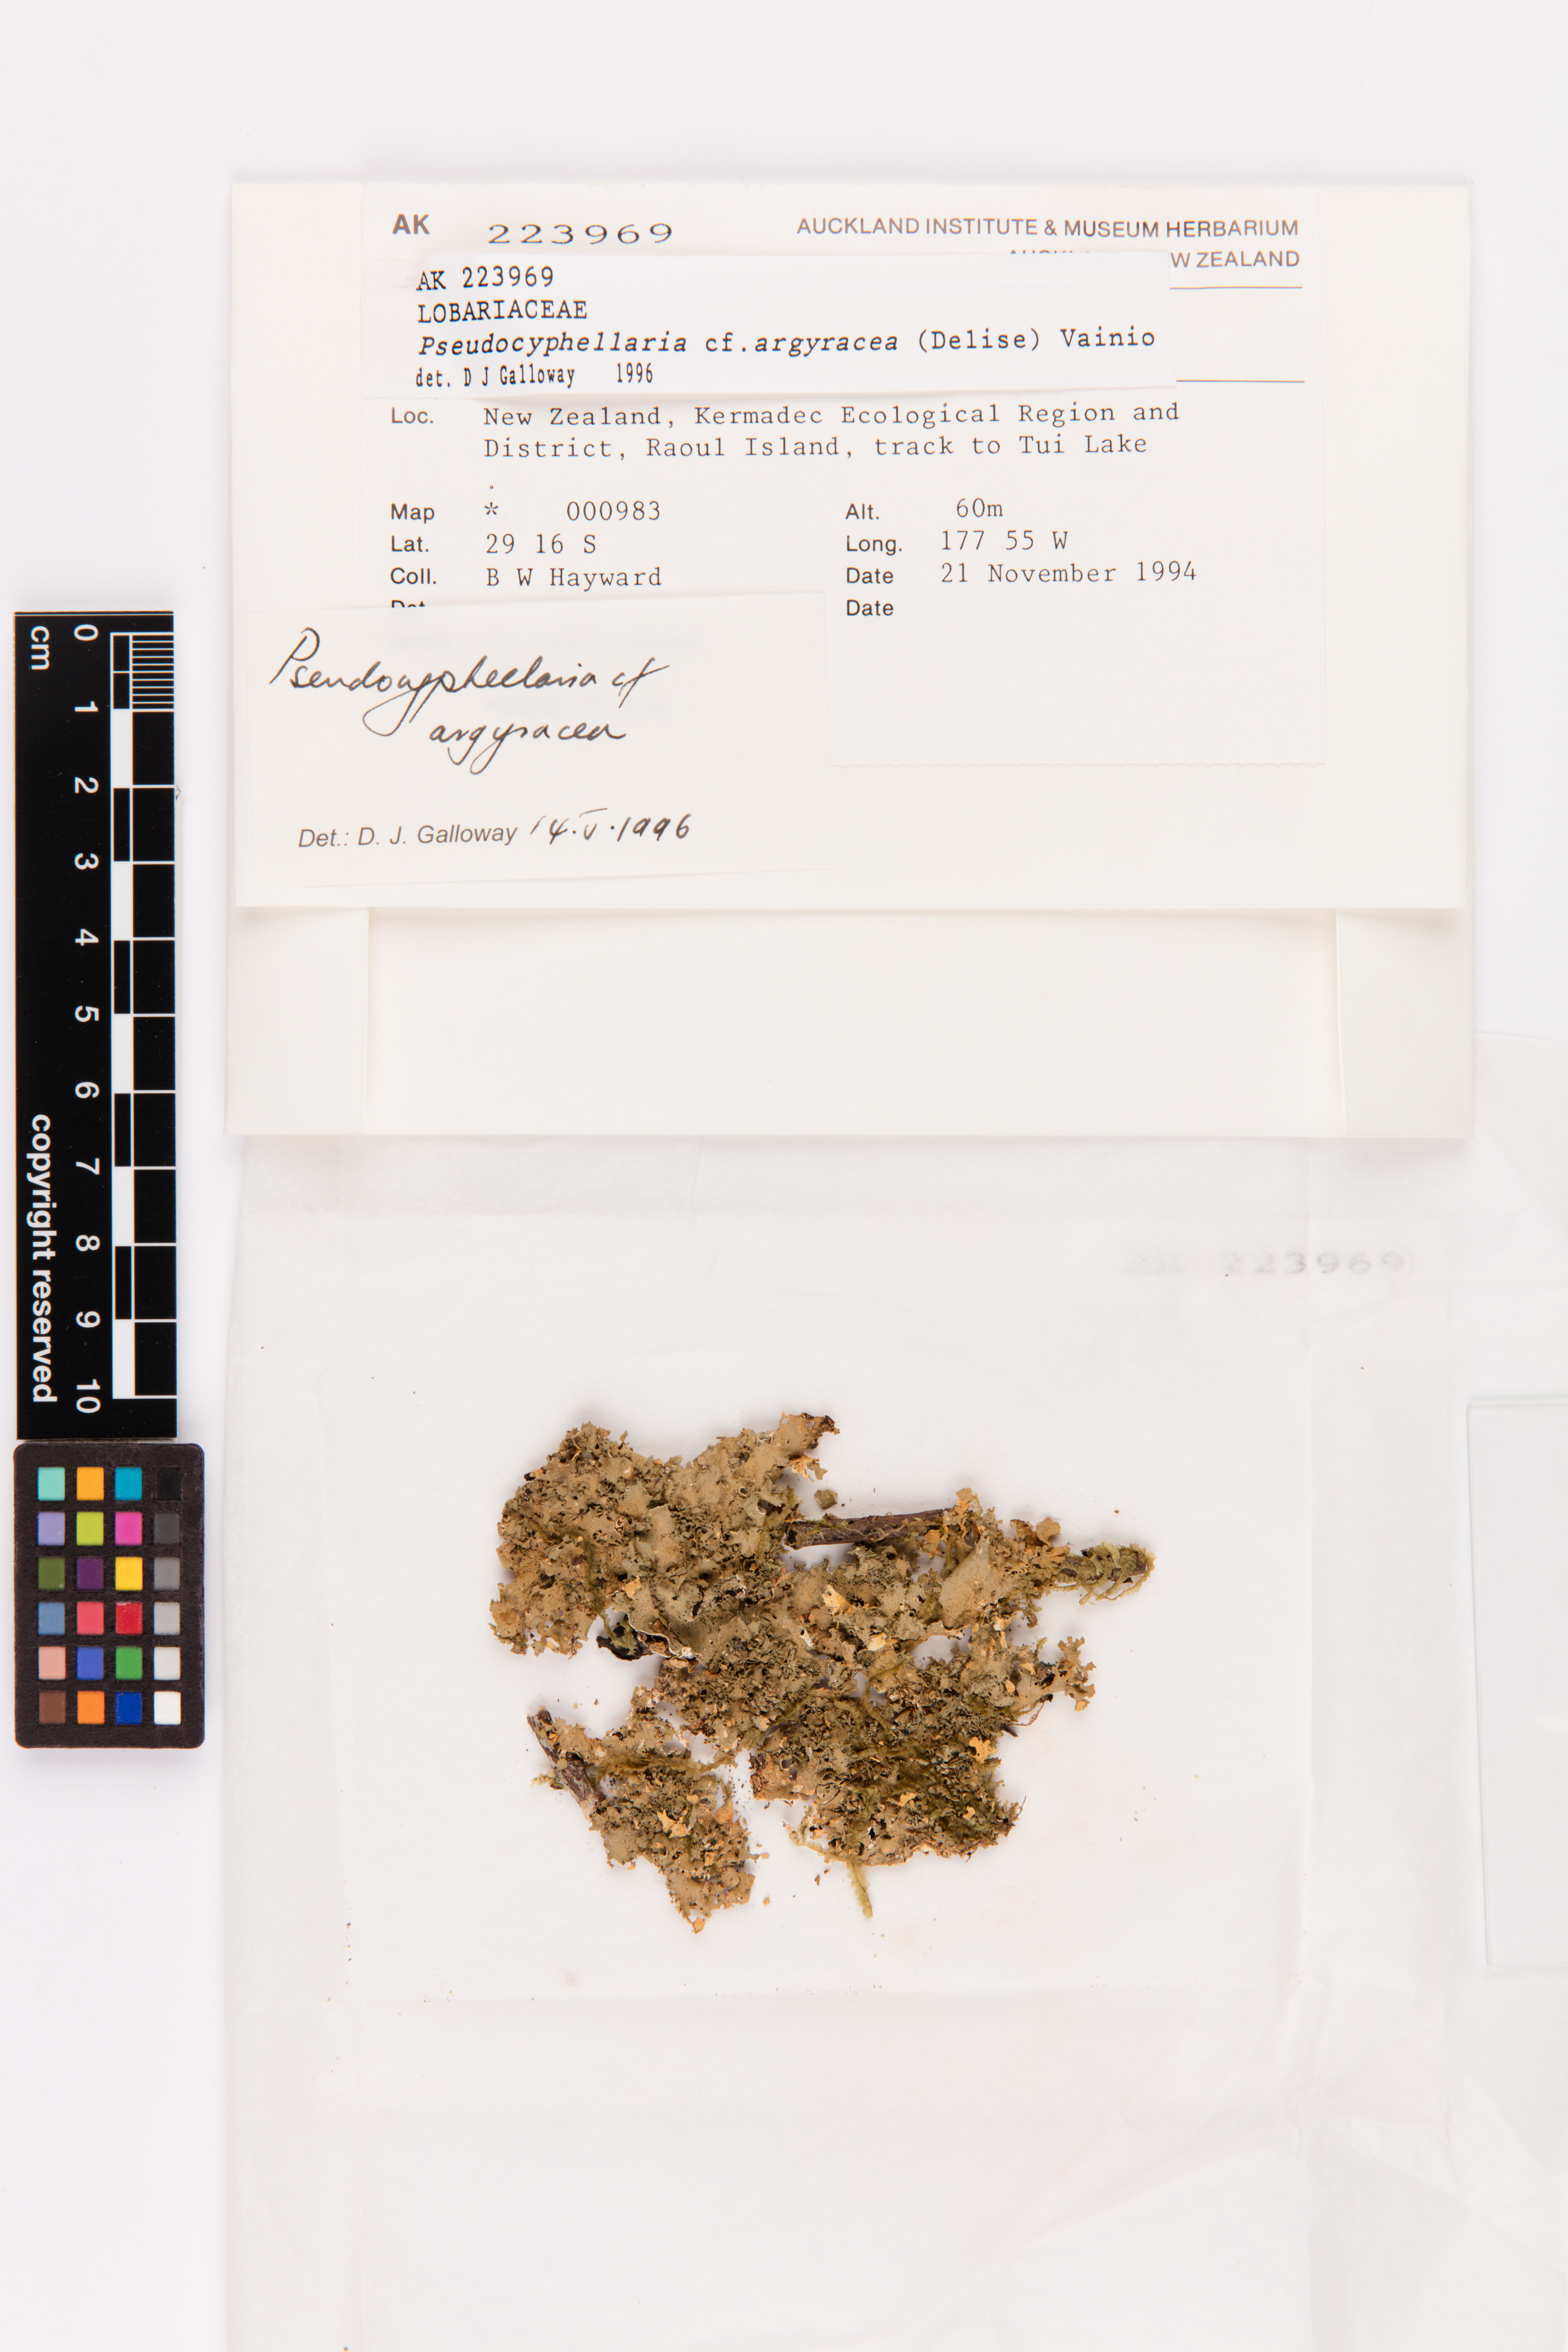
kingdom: Fungi
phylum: Ascomycota
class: Lecanoromycetes
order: Peltigerales
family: Lobariaceae
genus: Pseudocyphellaria
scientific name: Pseudocyphellaria argyracea
